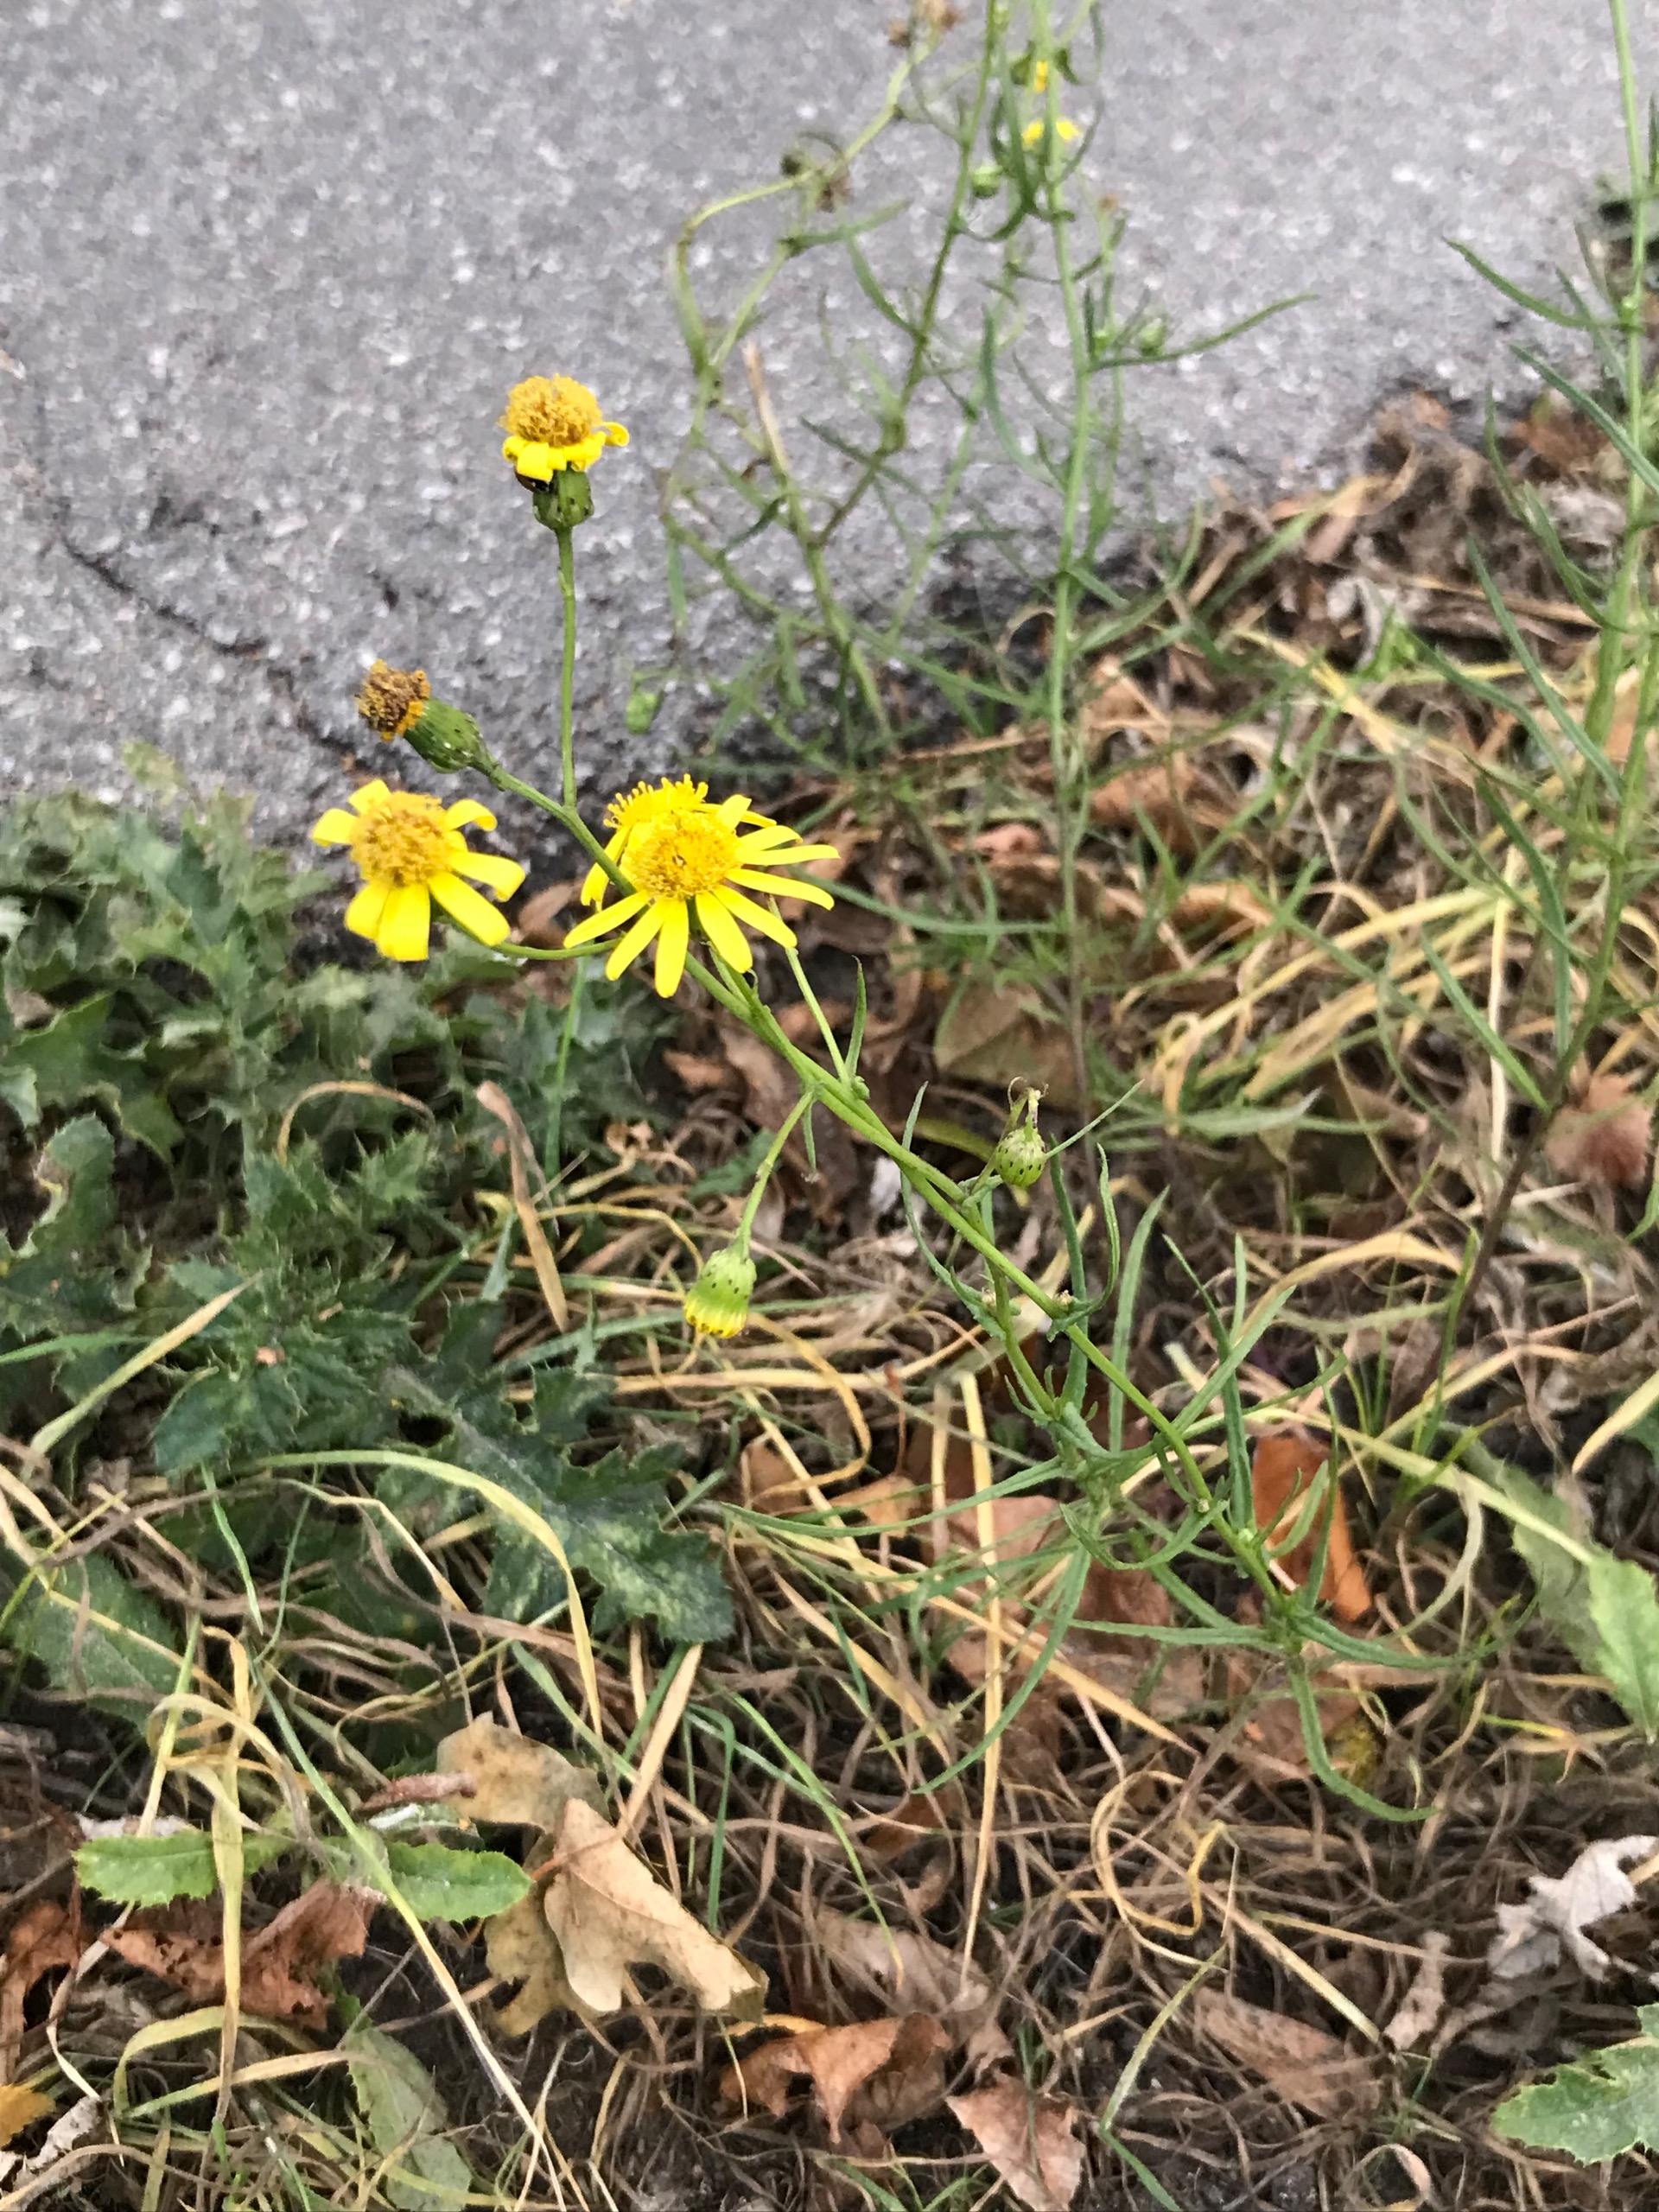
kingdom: Plantae
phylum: Tracheophyta
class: Magnoliopsida
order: Asterales
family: Asteraceae
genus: Senecio
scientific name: Senecio inaequidens
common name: Smalbladet brandbæger
